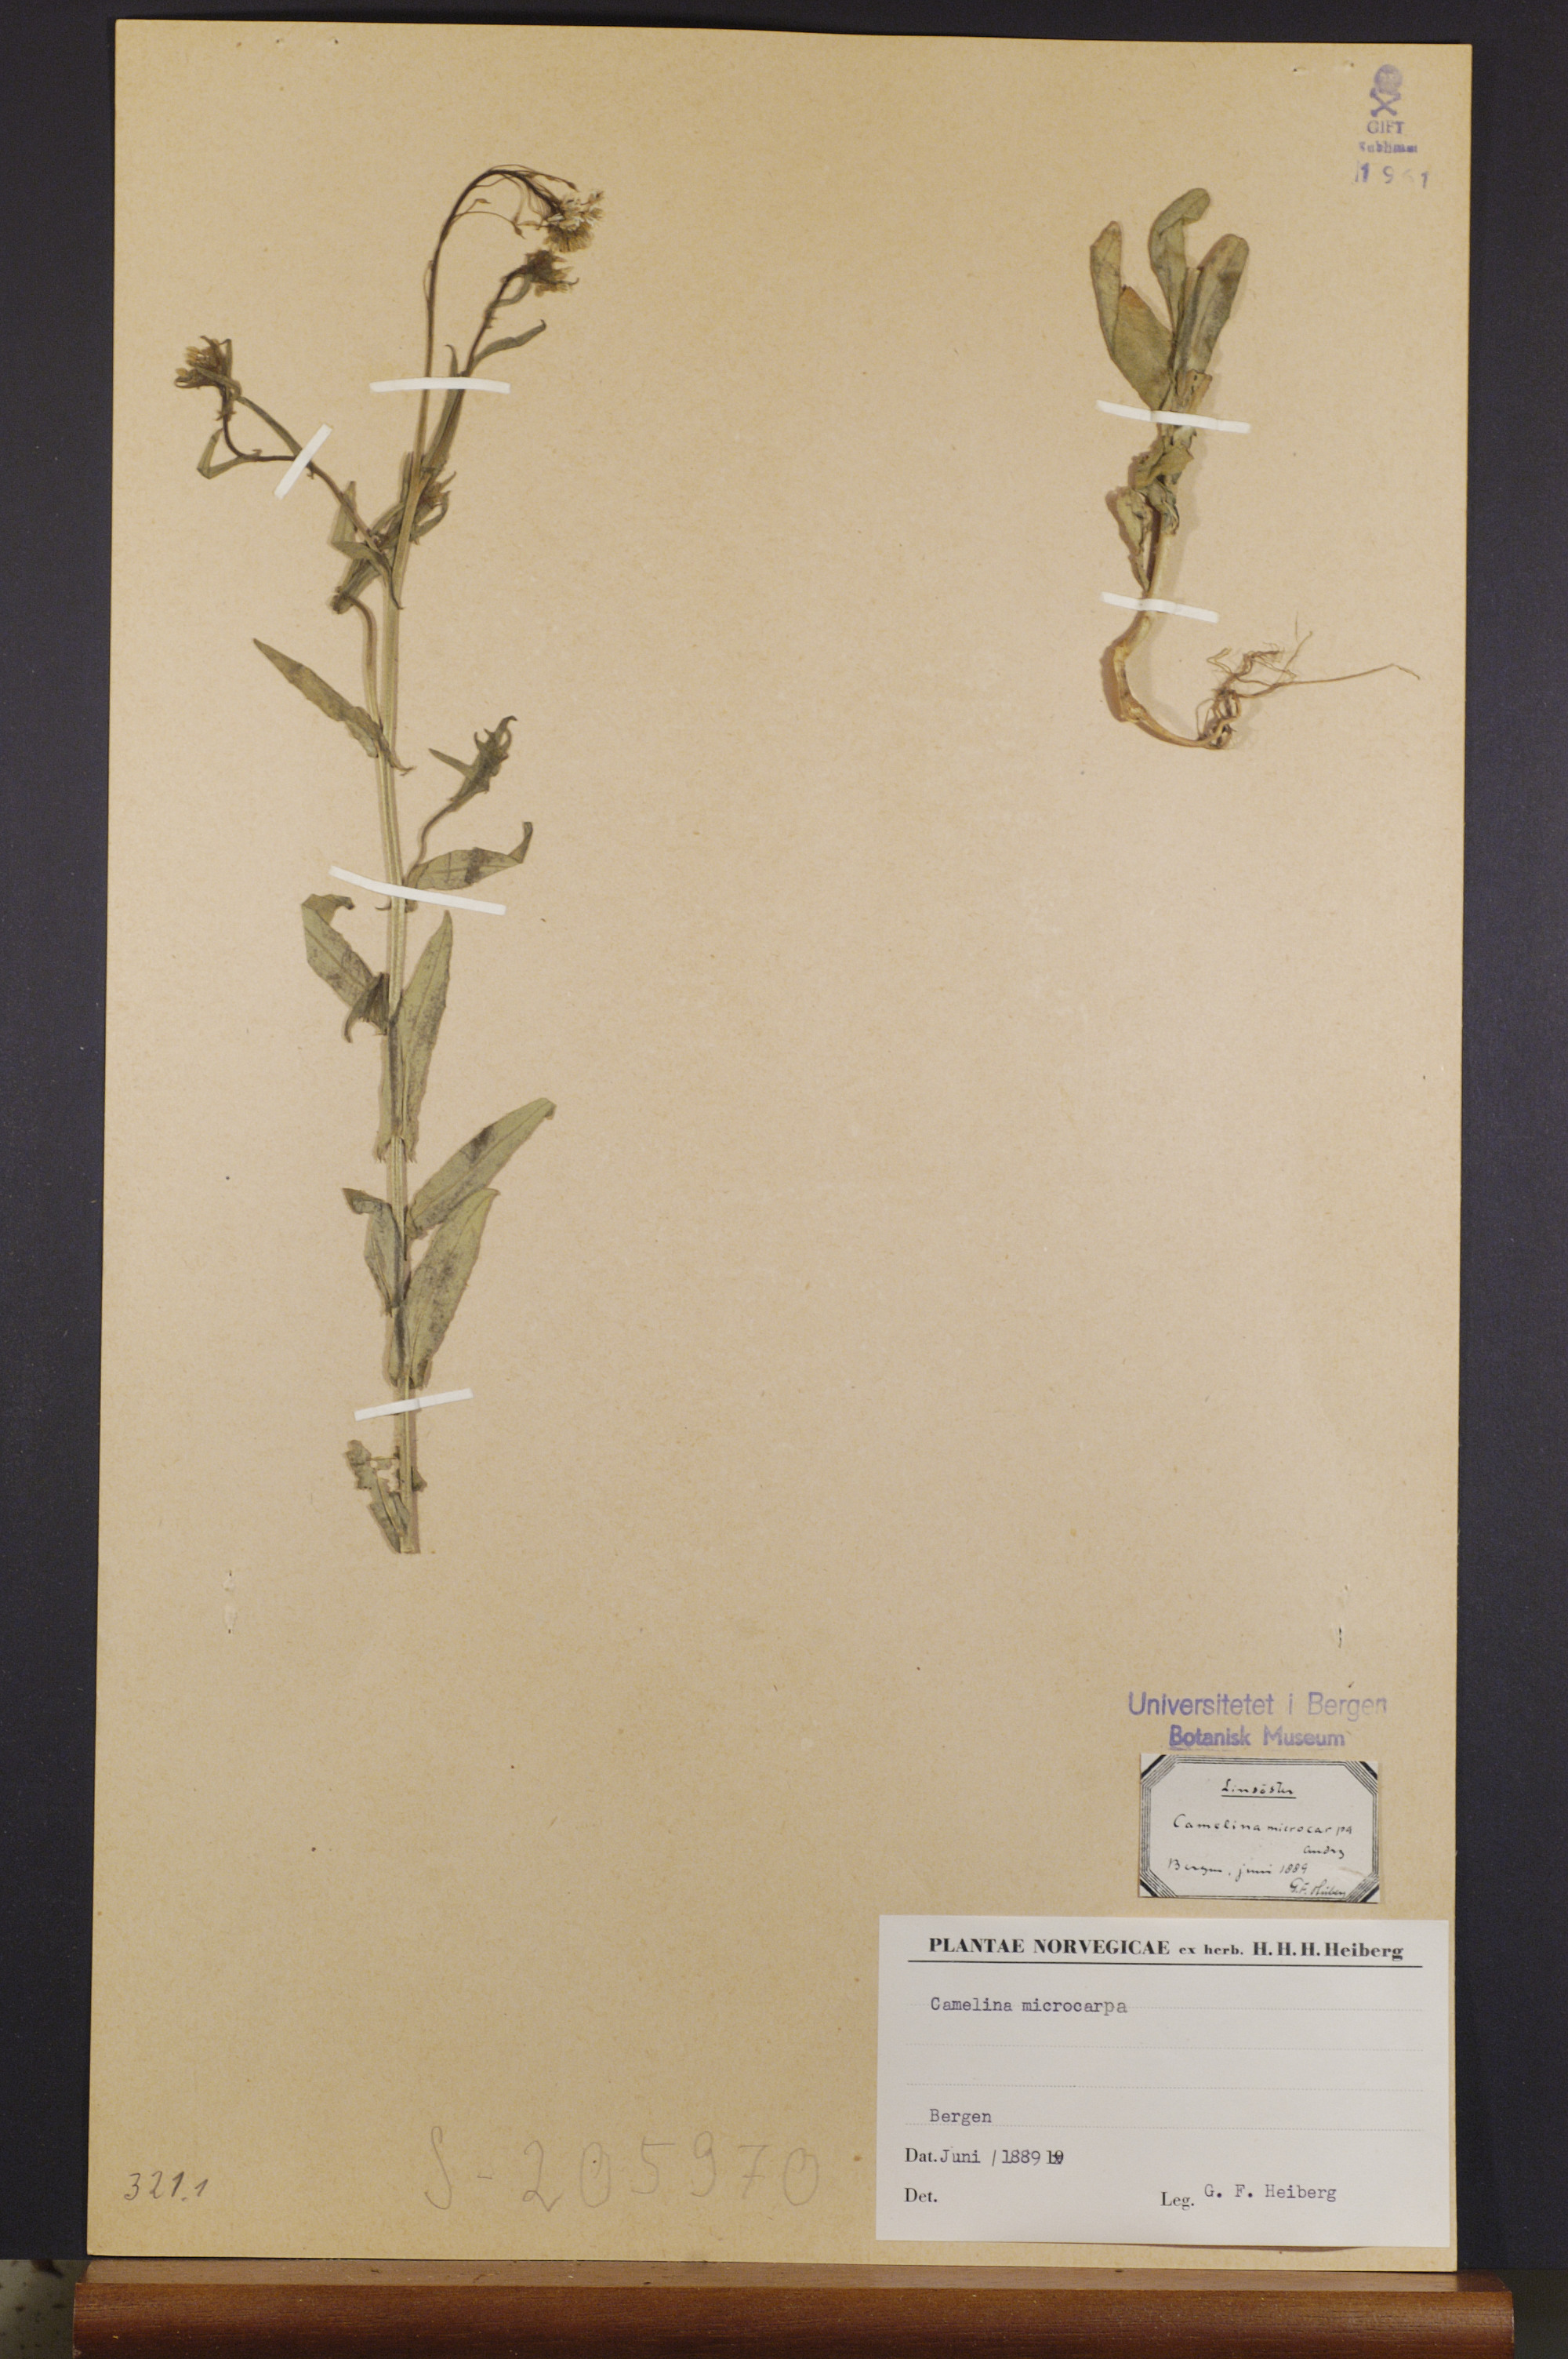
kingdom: Plantae
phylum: Tracheophyta
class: Magnoliopsida
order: Brassicales
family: Brassicaceae
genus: Camelina
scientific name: Camelina sativa
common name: Gold-of-pleasure
